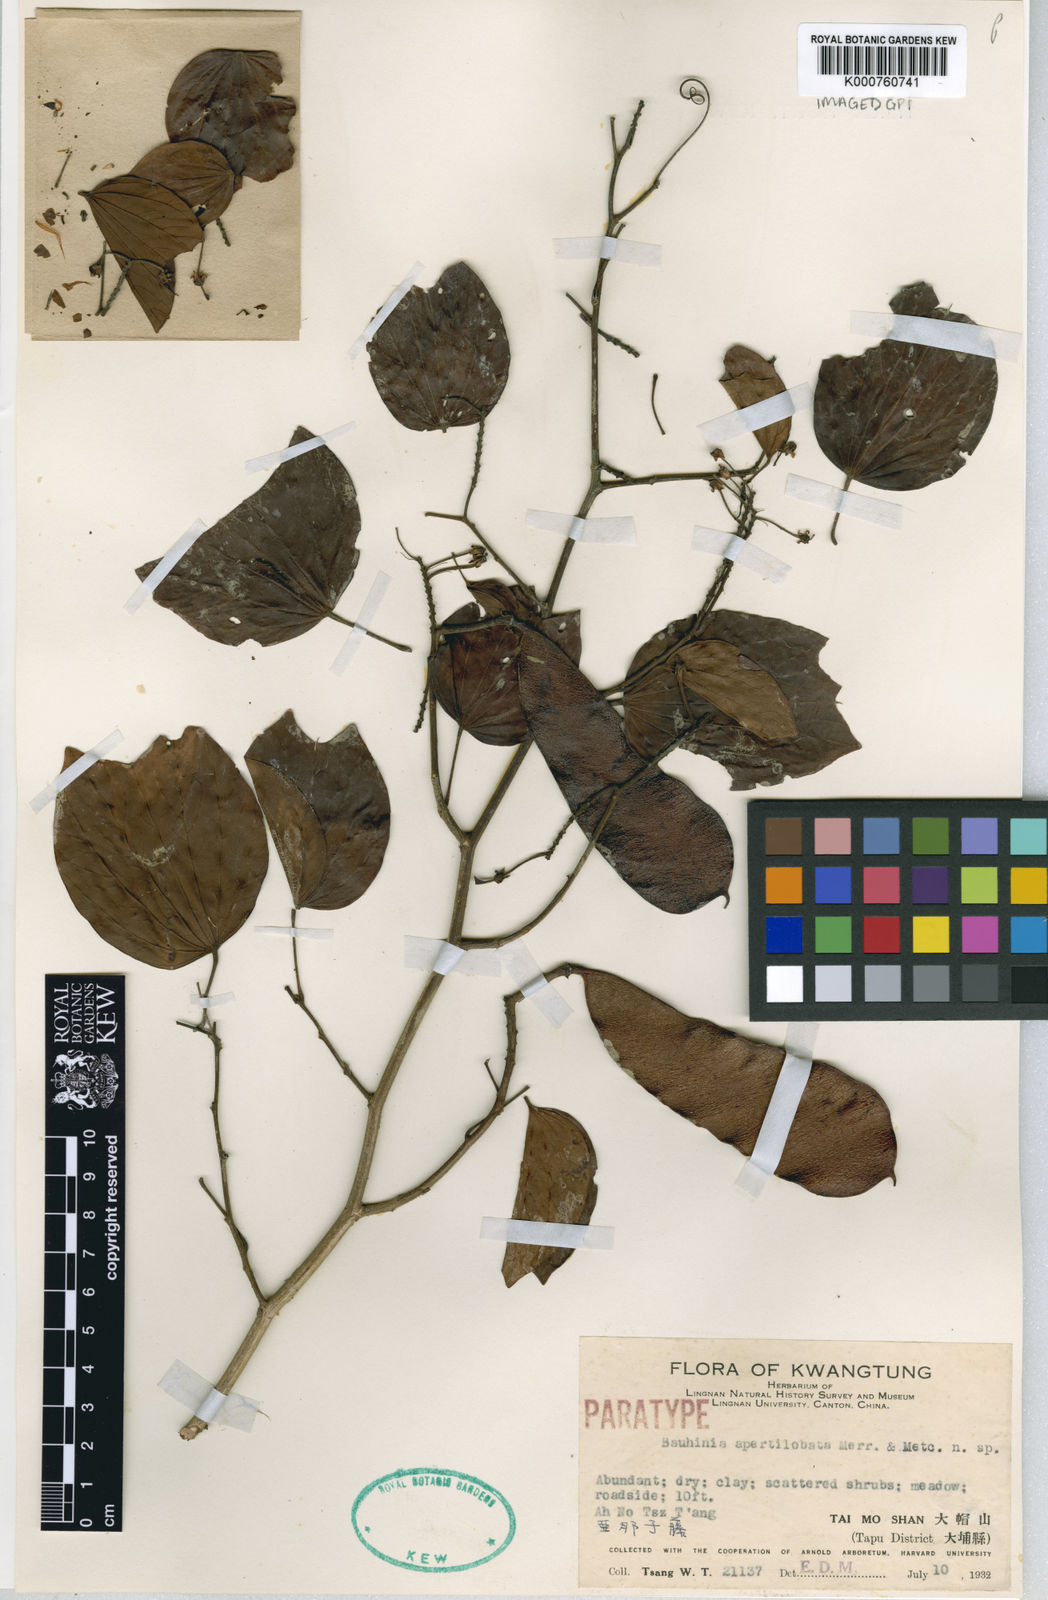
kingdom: Plantae
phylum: Tracheophyta
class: Magnoliopsida
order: Fabales
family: Fabaceae
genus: Phanera
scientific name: Phanera apertilobata
